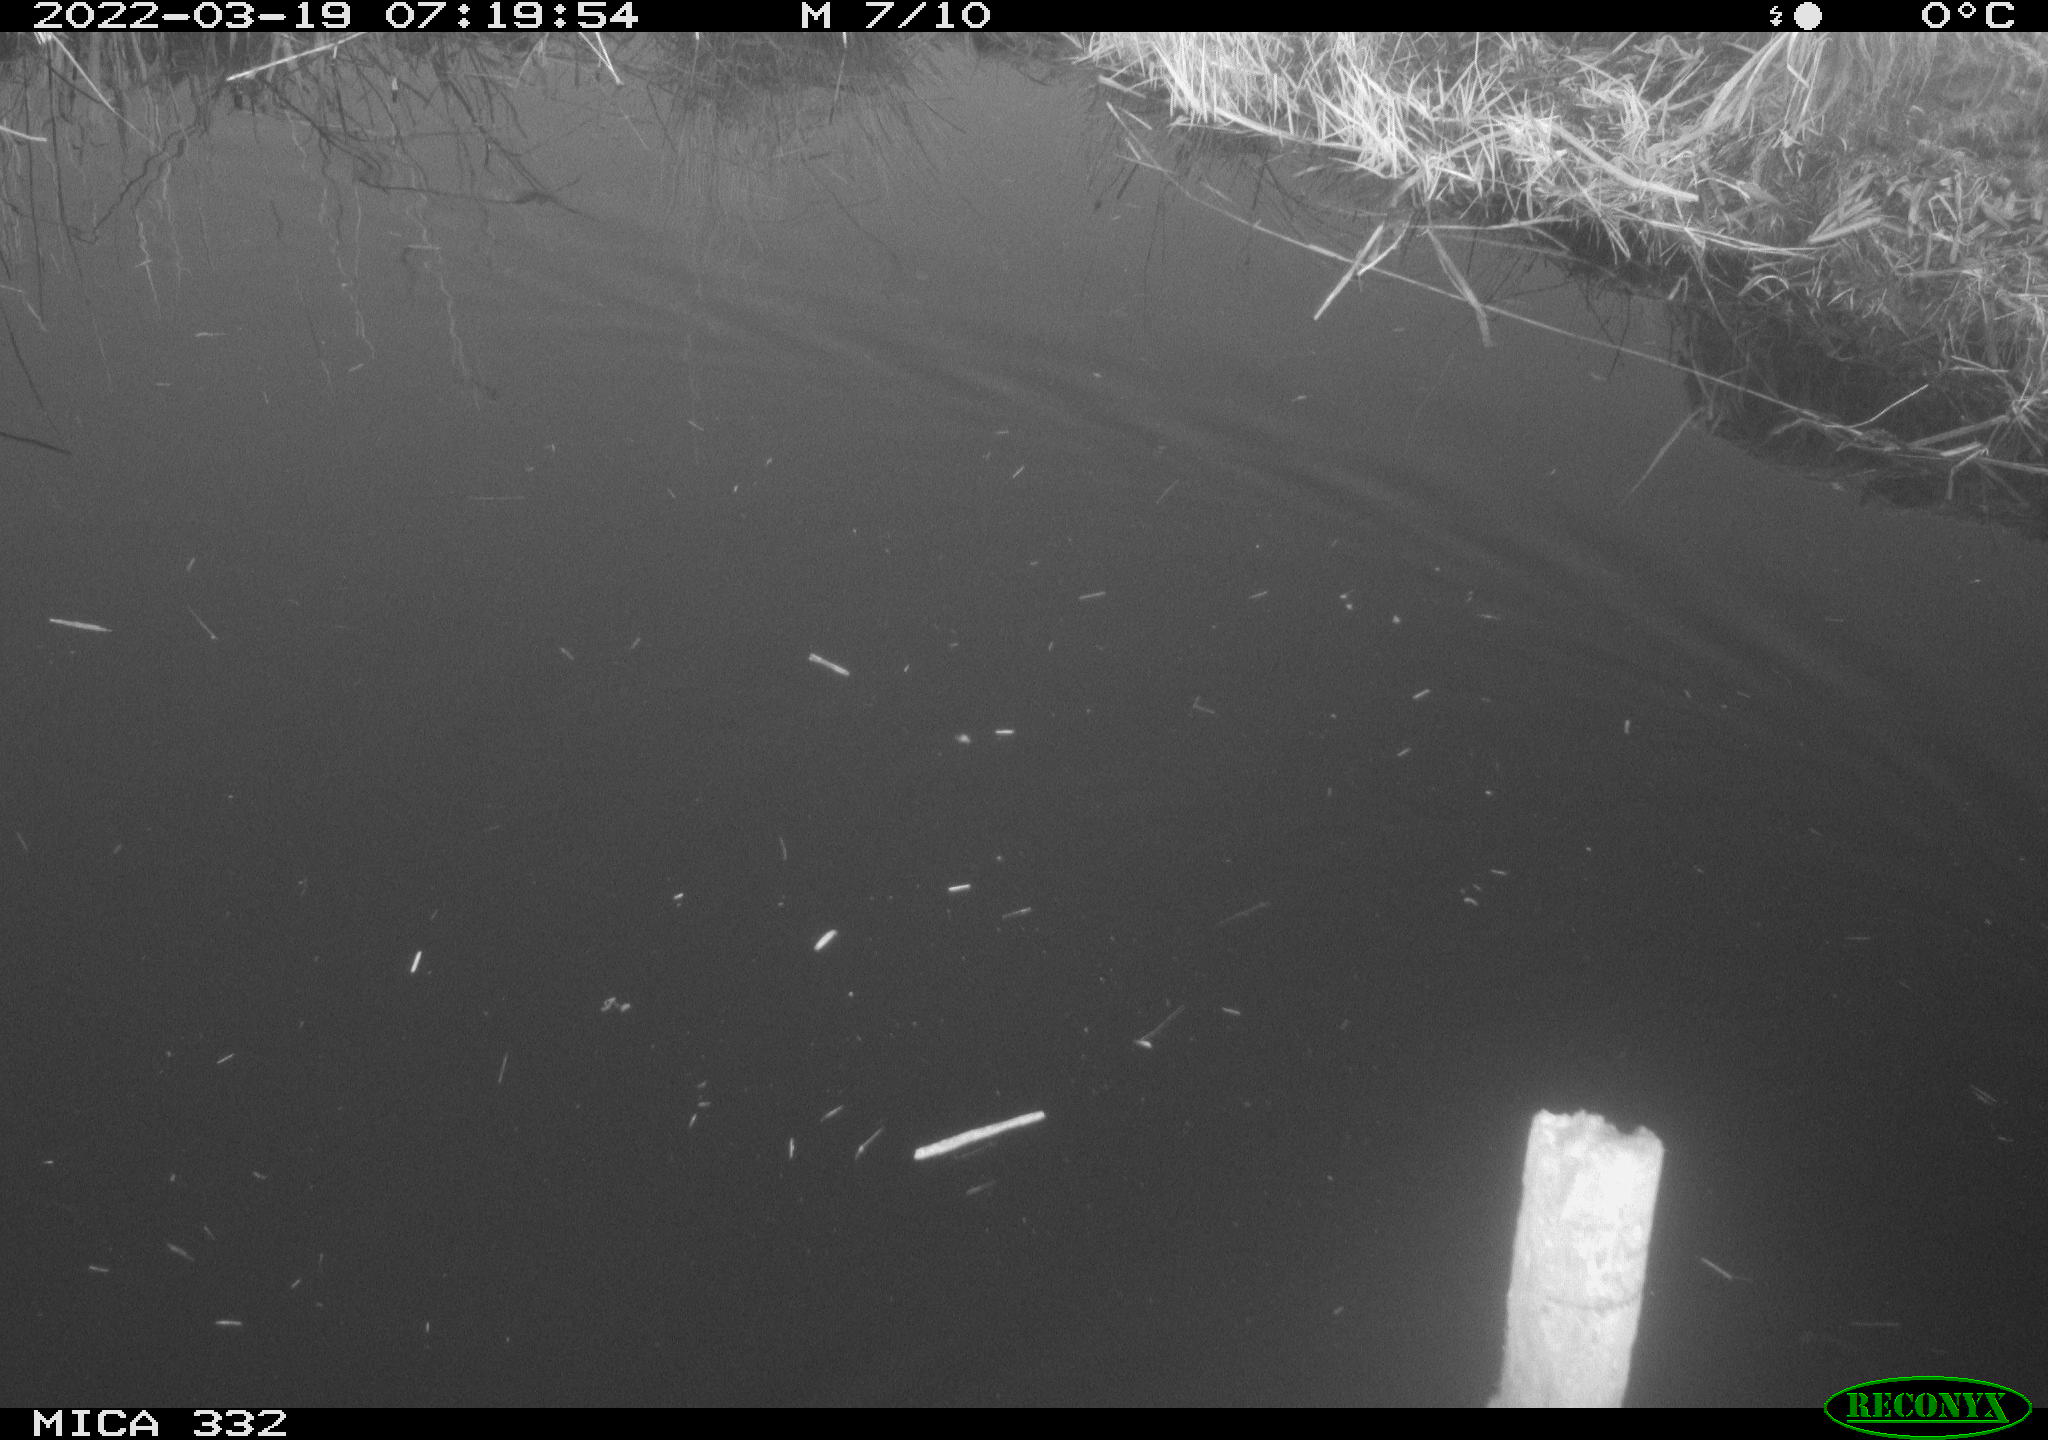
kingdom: Animalia
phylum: Chordata
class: Aves
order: Anseriformes
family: Anatidae
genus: Anas
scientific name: Anas platyrhynchos
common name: Mallard
